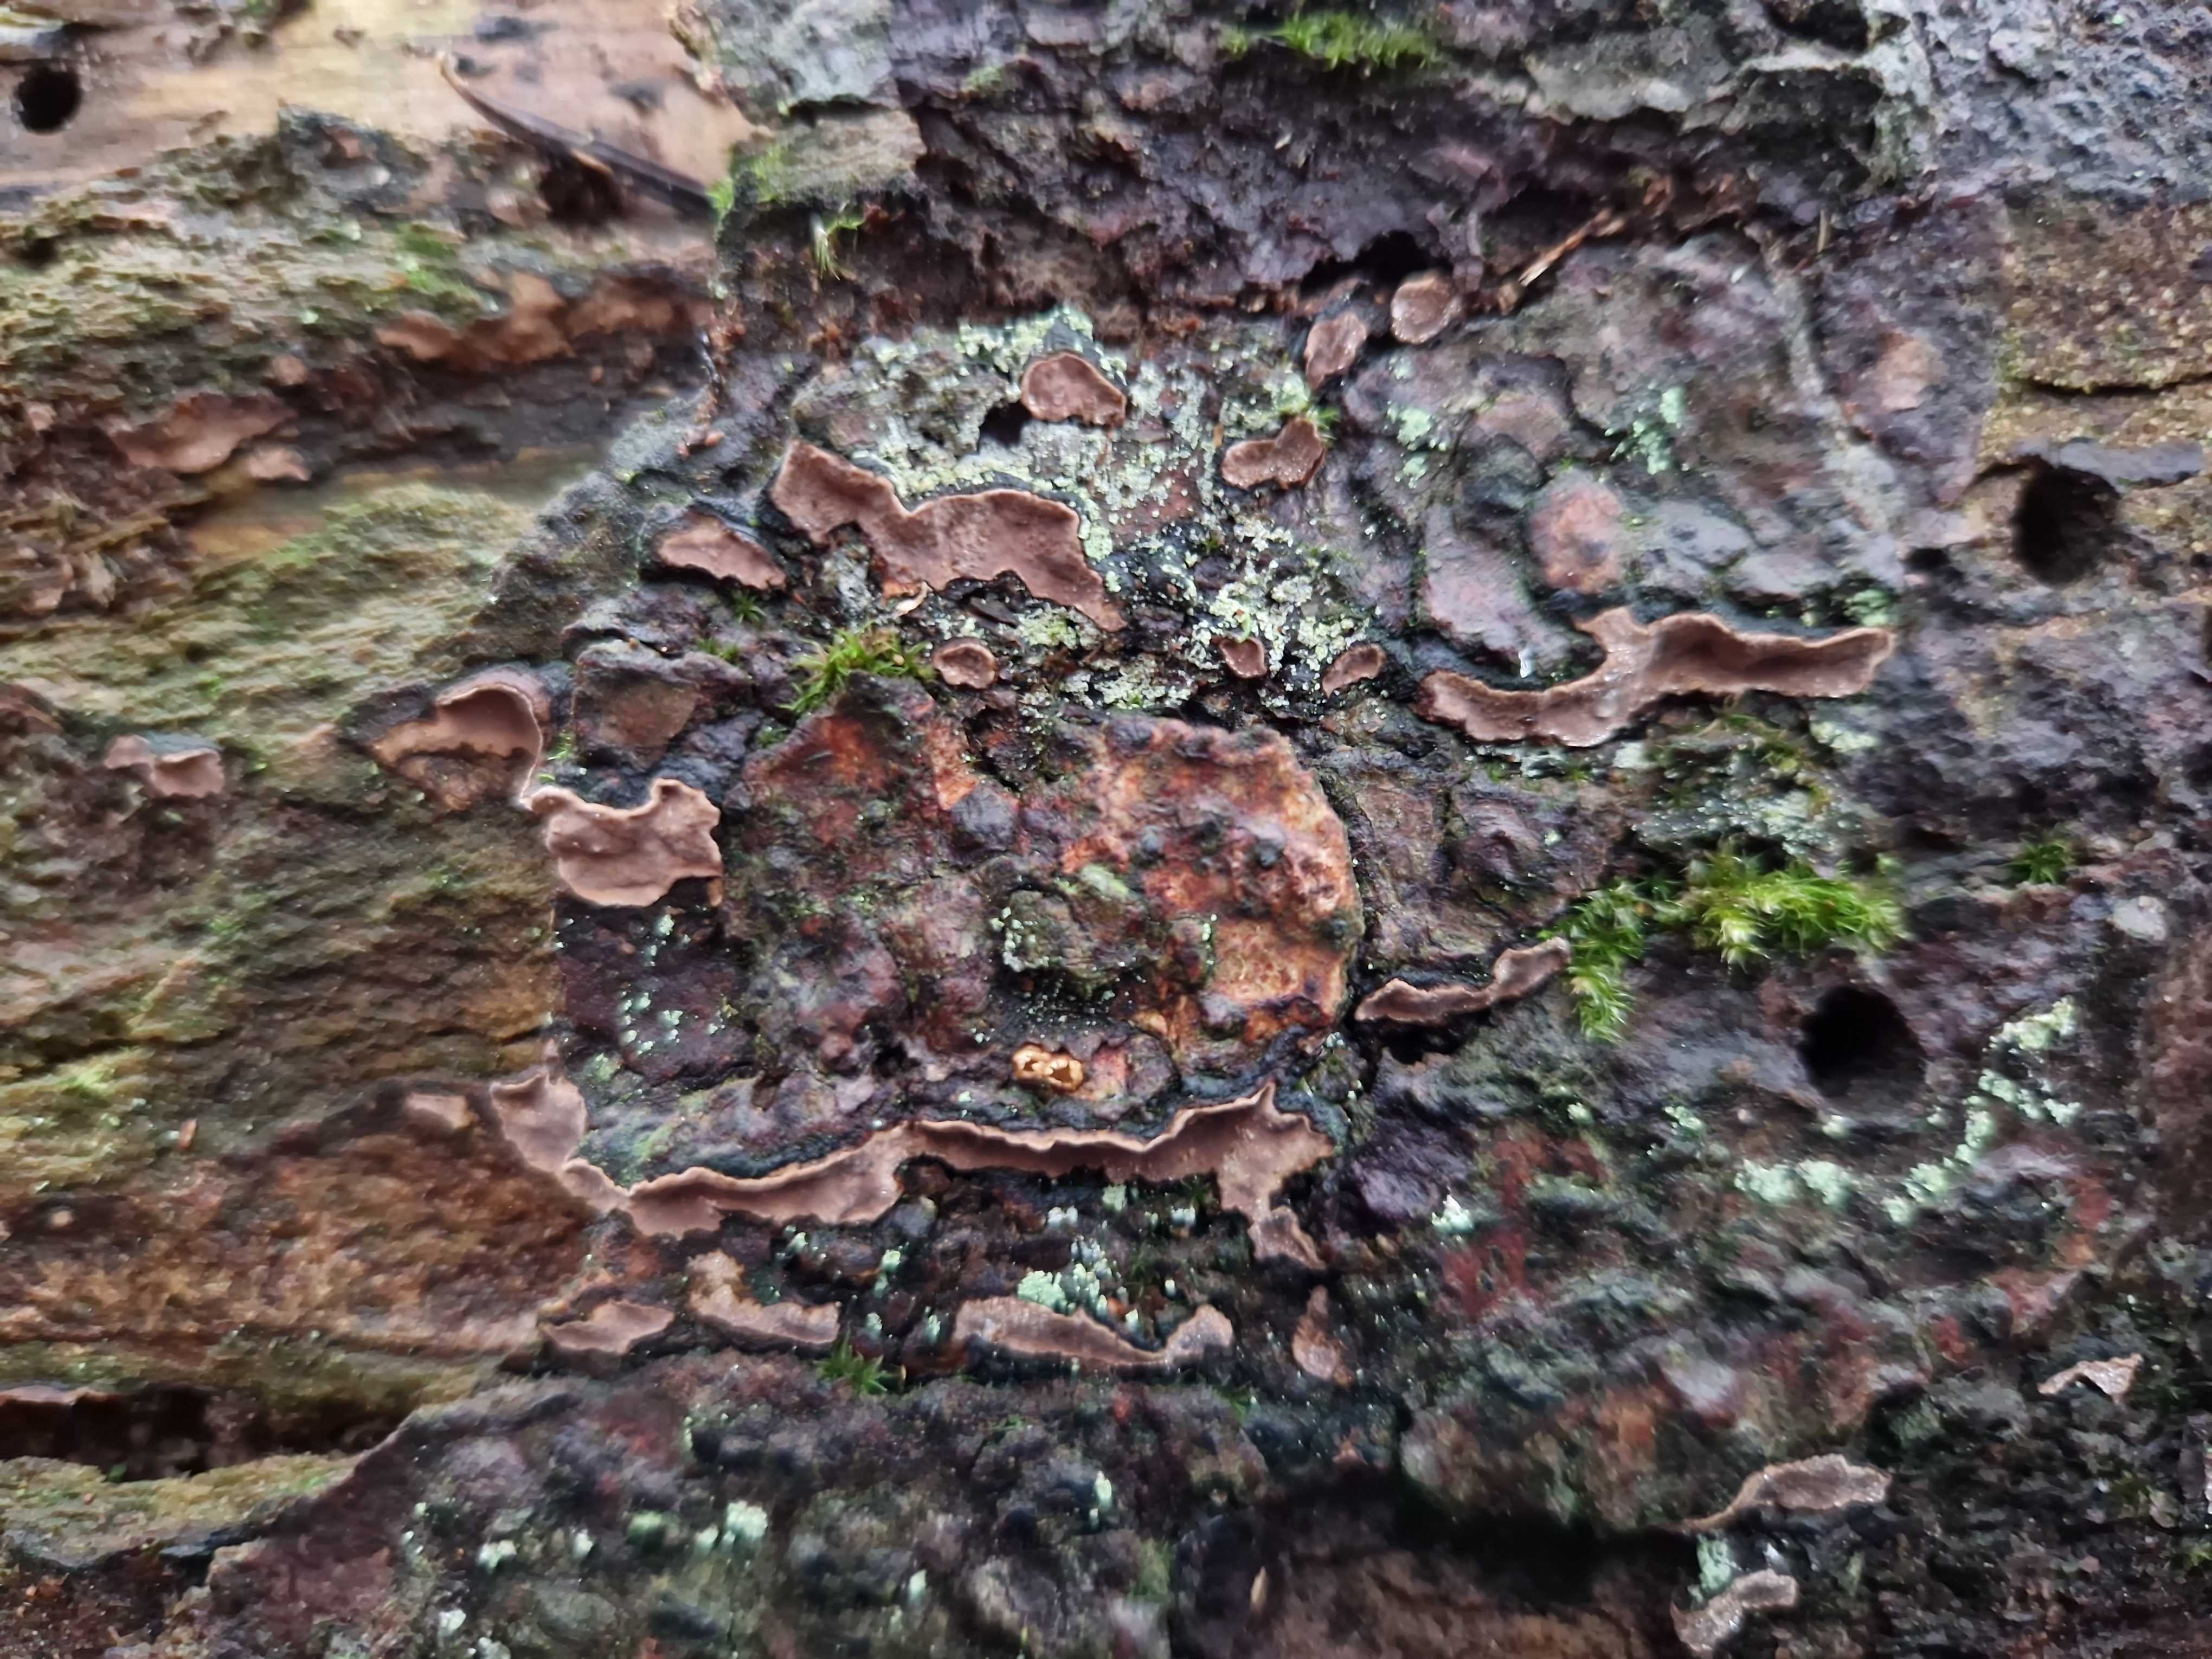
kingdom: Fungi
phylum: Basidiomycota
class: Agaricomycetes
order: Russulales
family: Echinodontiaceae
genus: Amylostereum
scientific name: Amylostereum chailletii
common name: gran-lædersvamp
